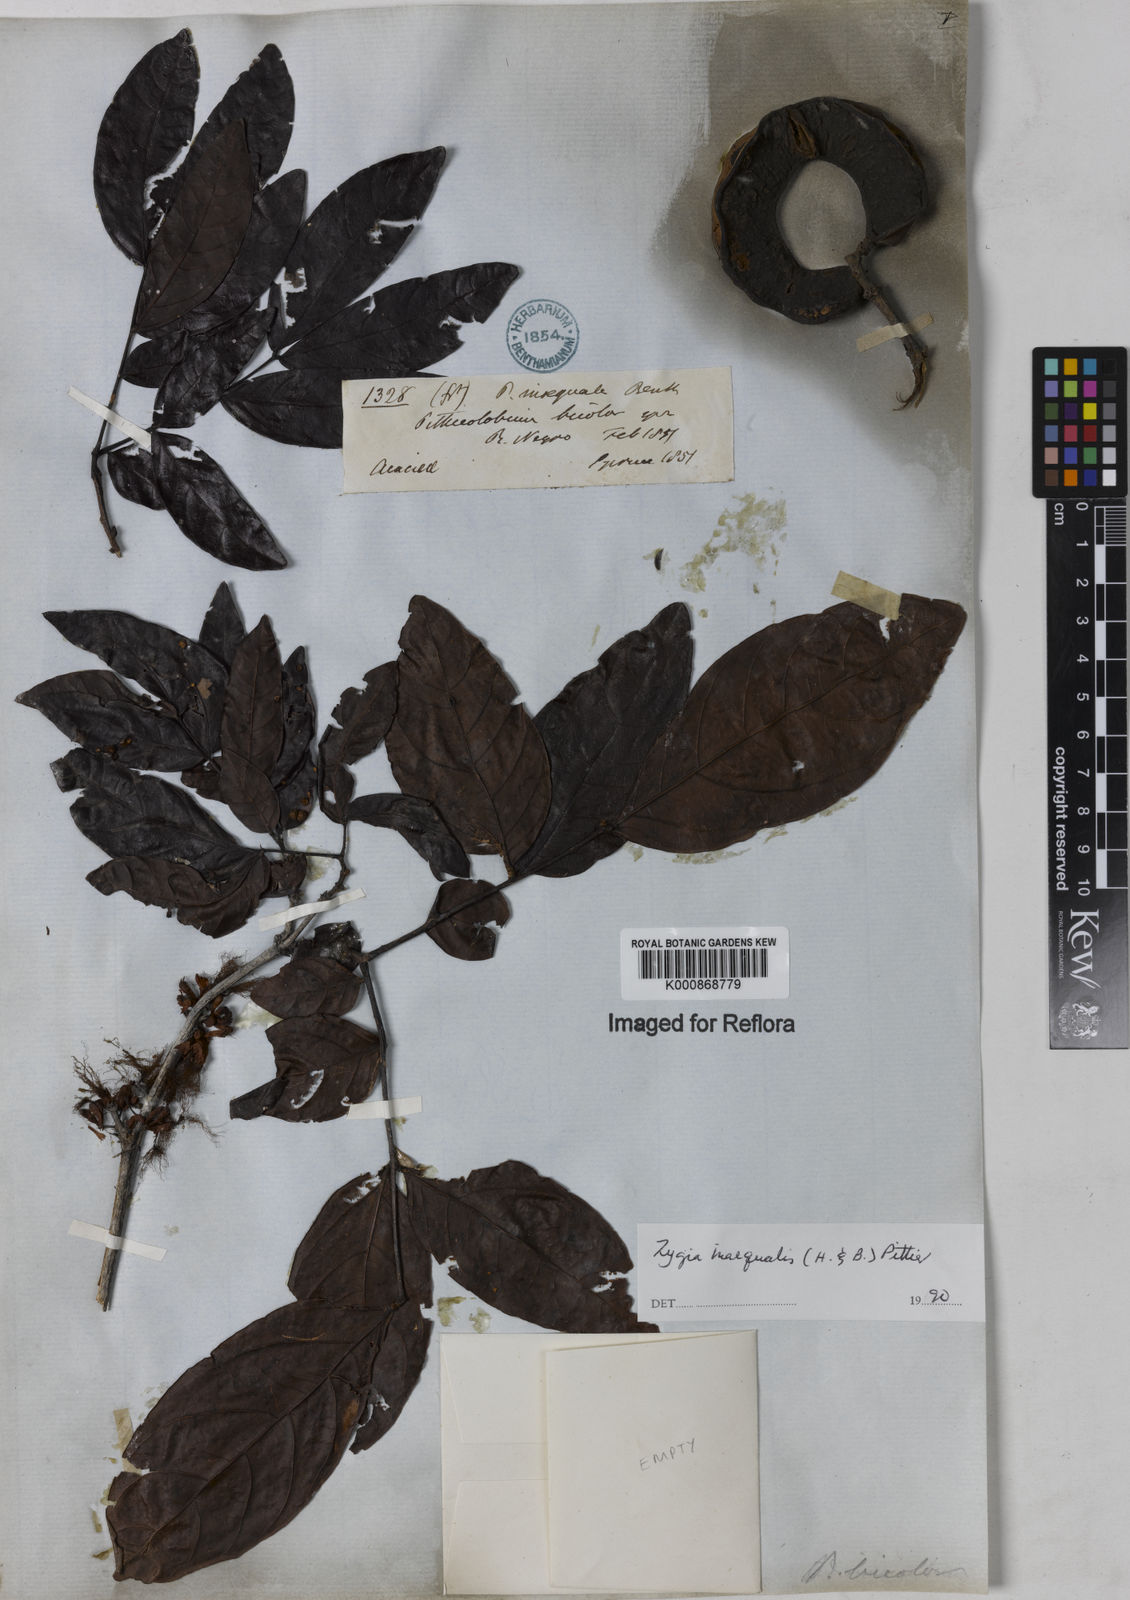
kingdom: Plantae
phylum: Tracheophyta
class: Magnoliopsida
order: Fabales
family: Fabaceae
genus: Zygia
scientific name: Zygia inaequalis
